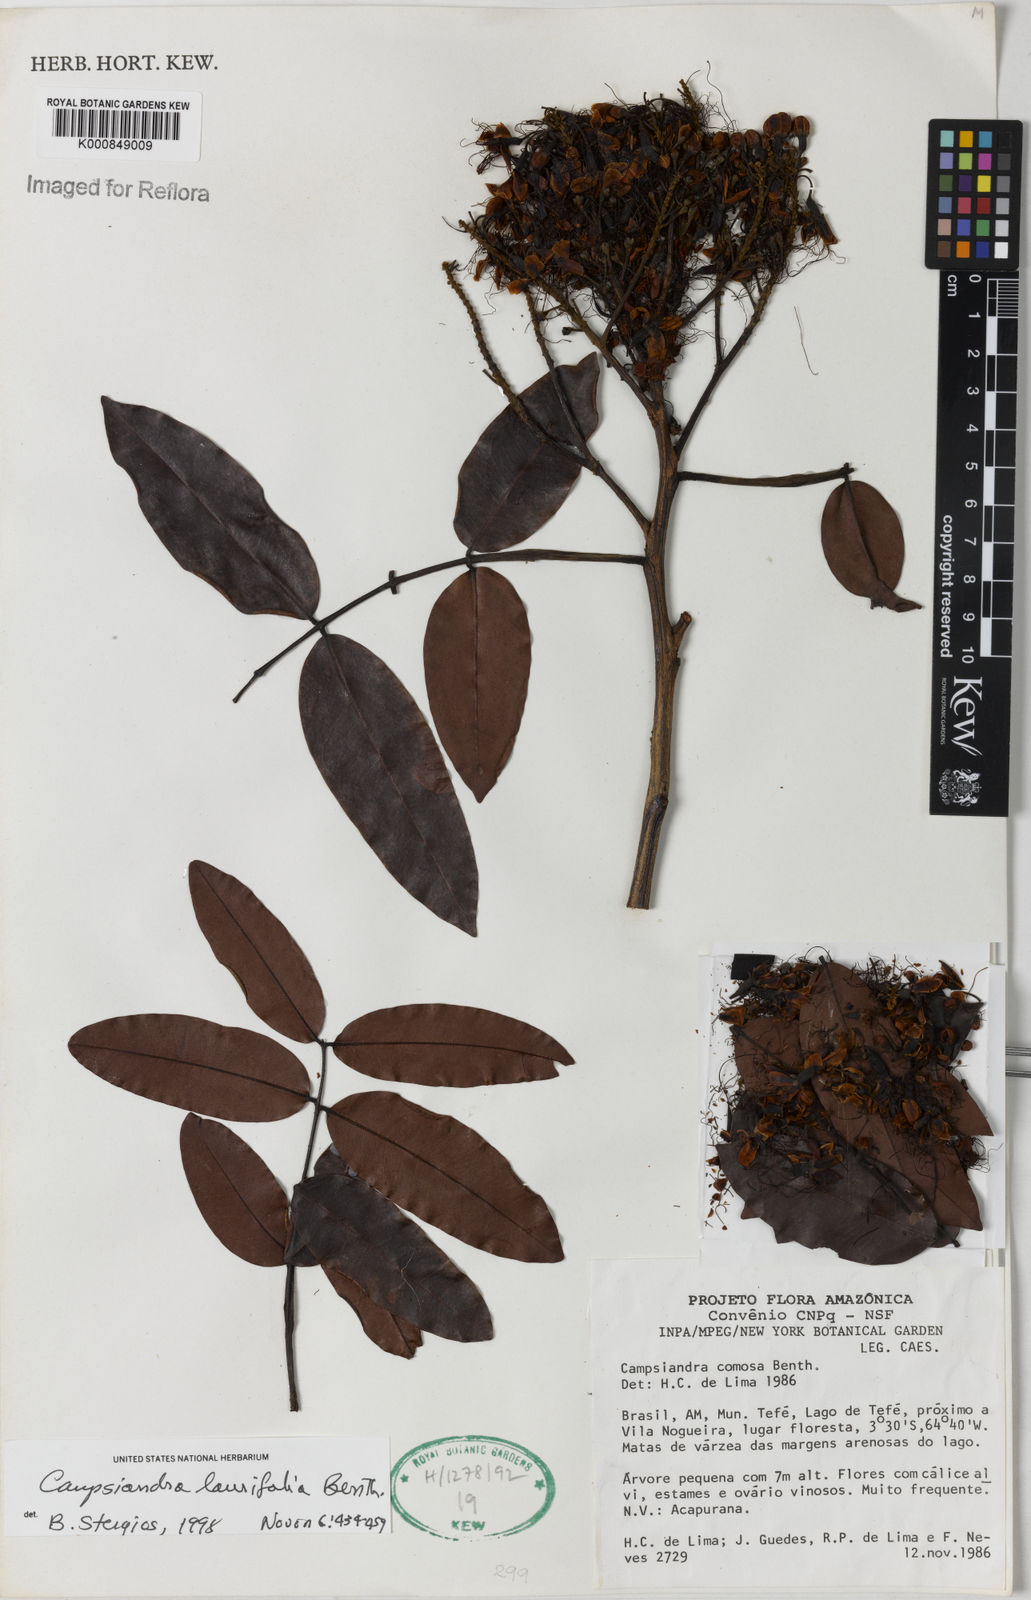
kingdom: Plantae
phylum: Tracheophyta
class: Magnoliopsida
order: Fabales
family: Fabaceae
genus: Campsiandra
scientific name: Campsiandra laurifolia
